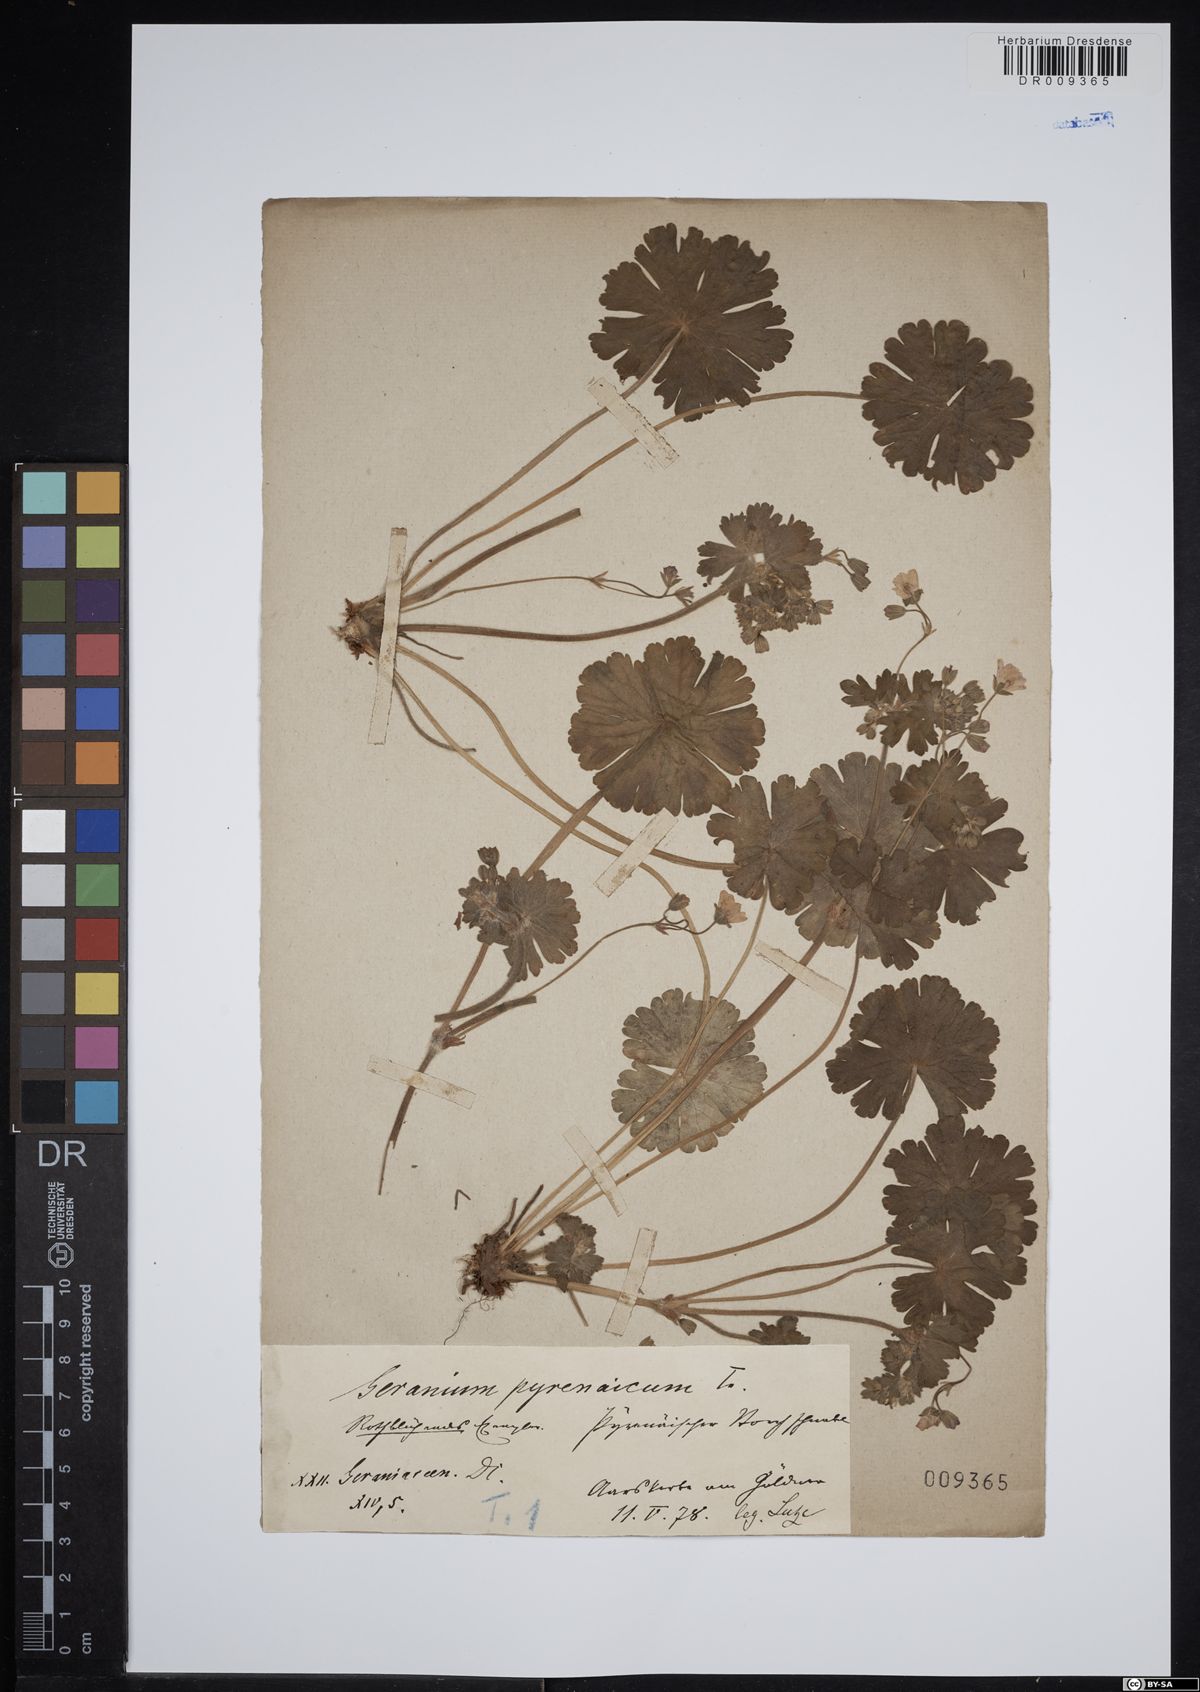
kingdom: Plantae
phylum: Tracheophyta
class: Magnoliopsida
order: Geraniales
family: Geraniaceae
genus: Geranium
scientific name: Geranium pyrenaicum
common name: Hedgerow crane's-bill
